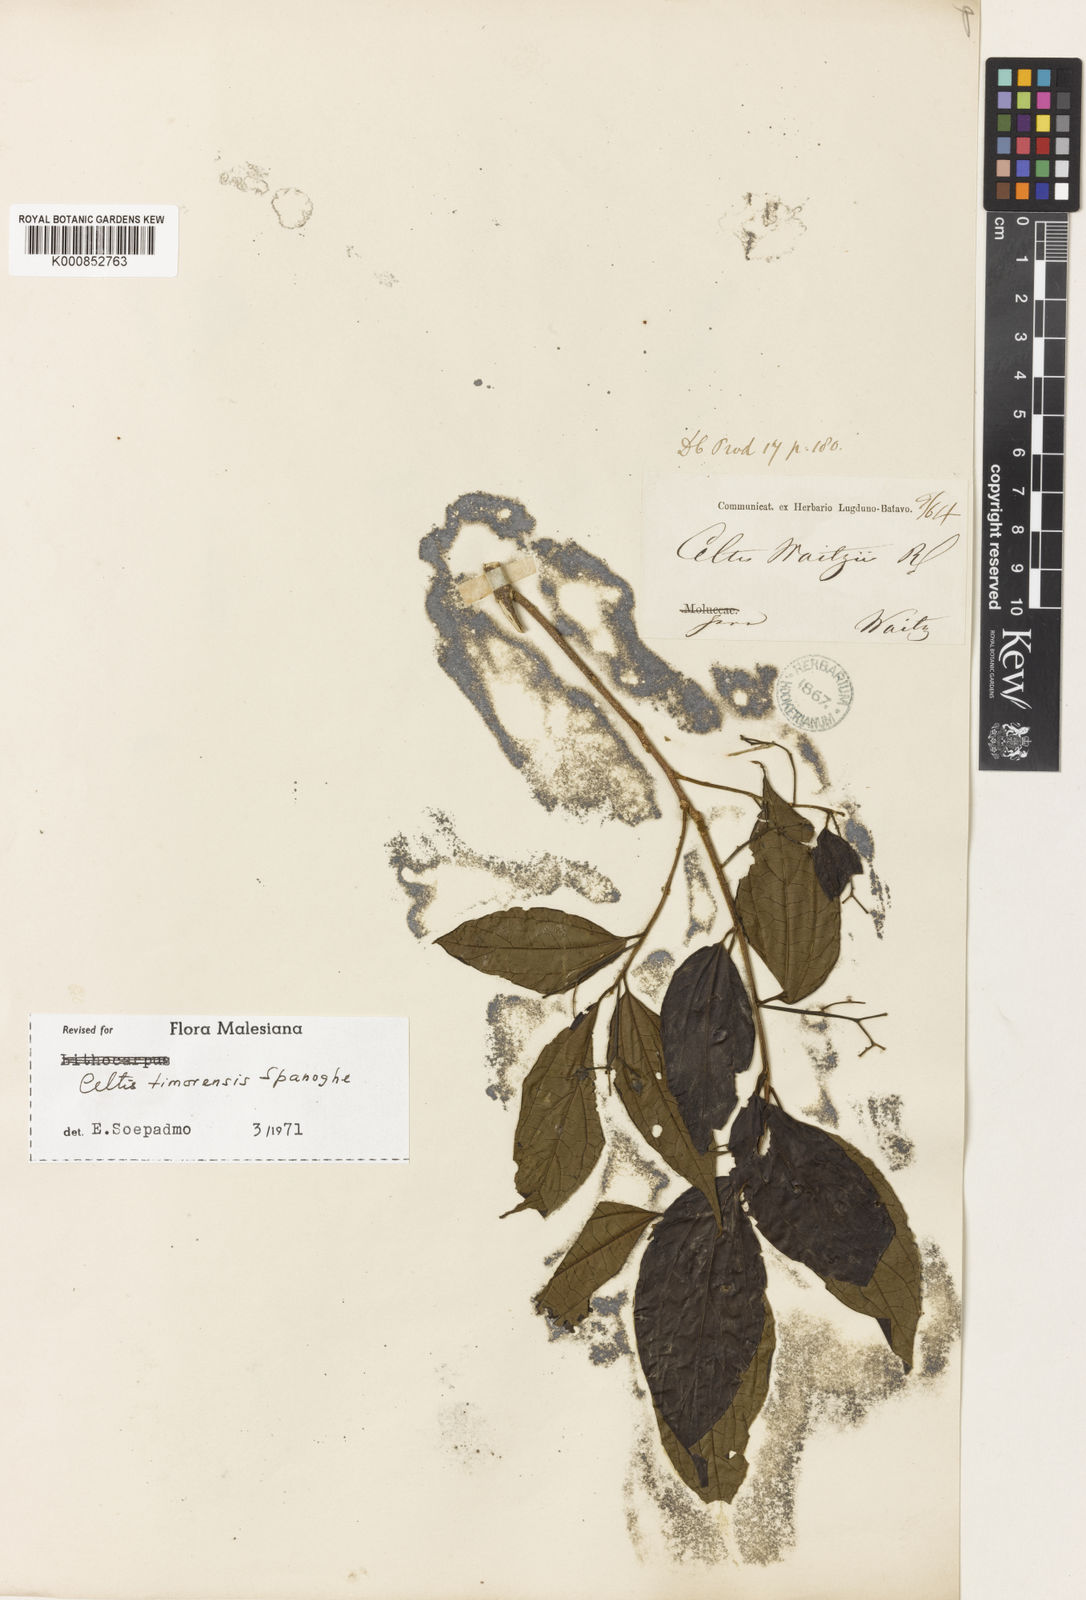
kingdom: Plantae
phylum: Tracheophyta
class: Magnoliopsida
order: Rosales
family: Cannabaceae
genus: Celtis
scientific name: Celtis timorensis
